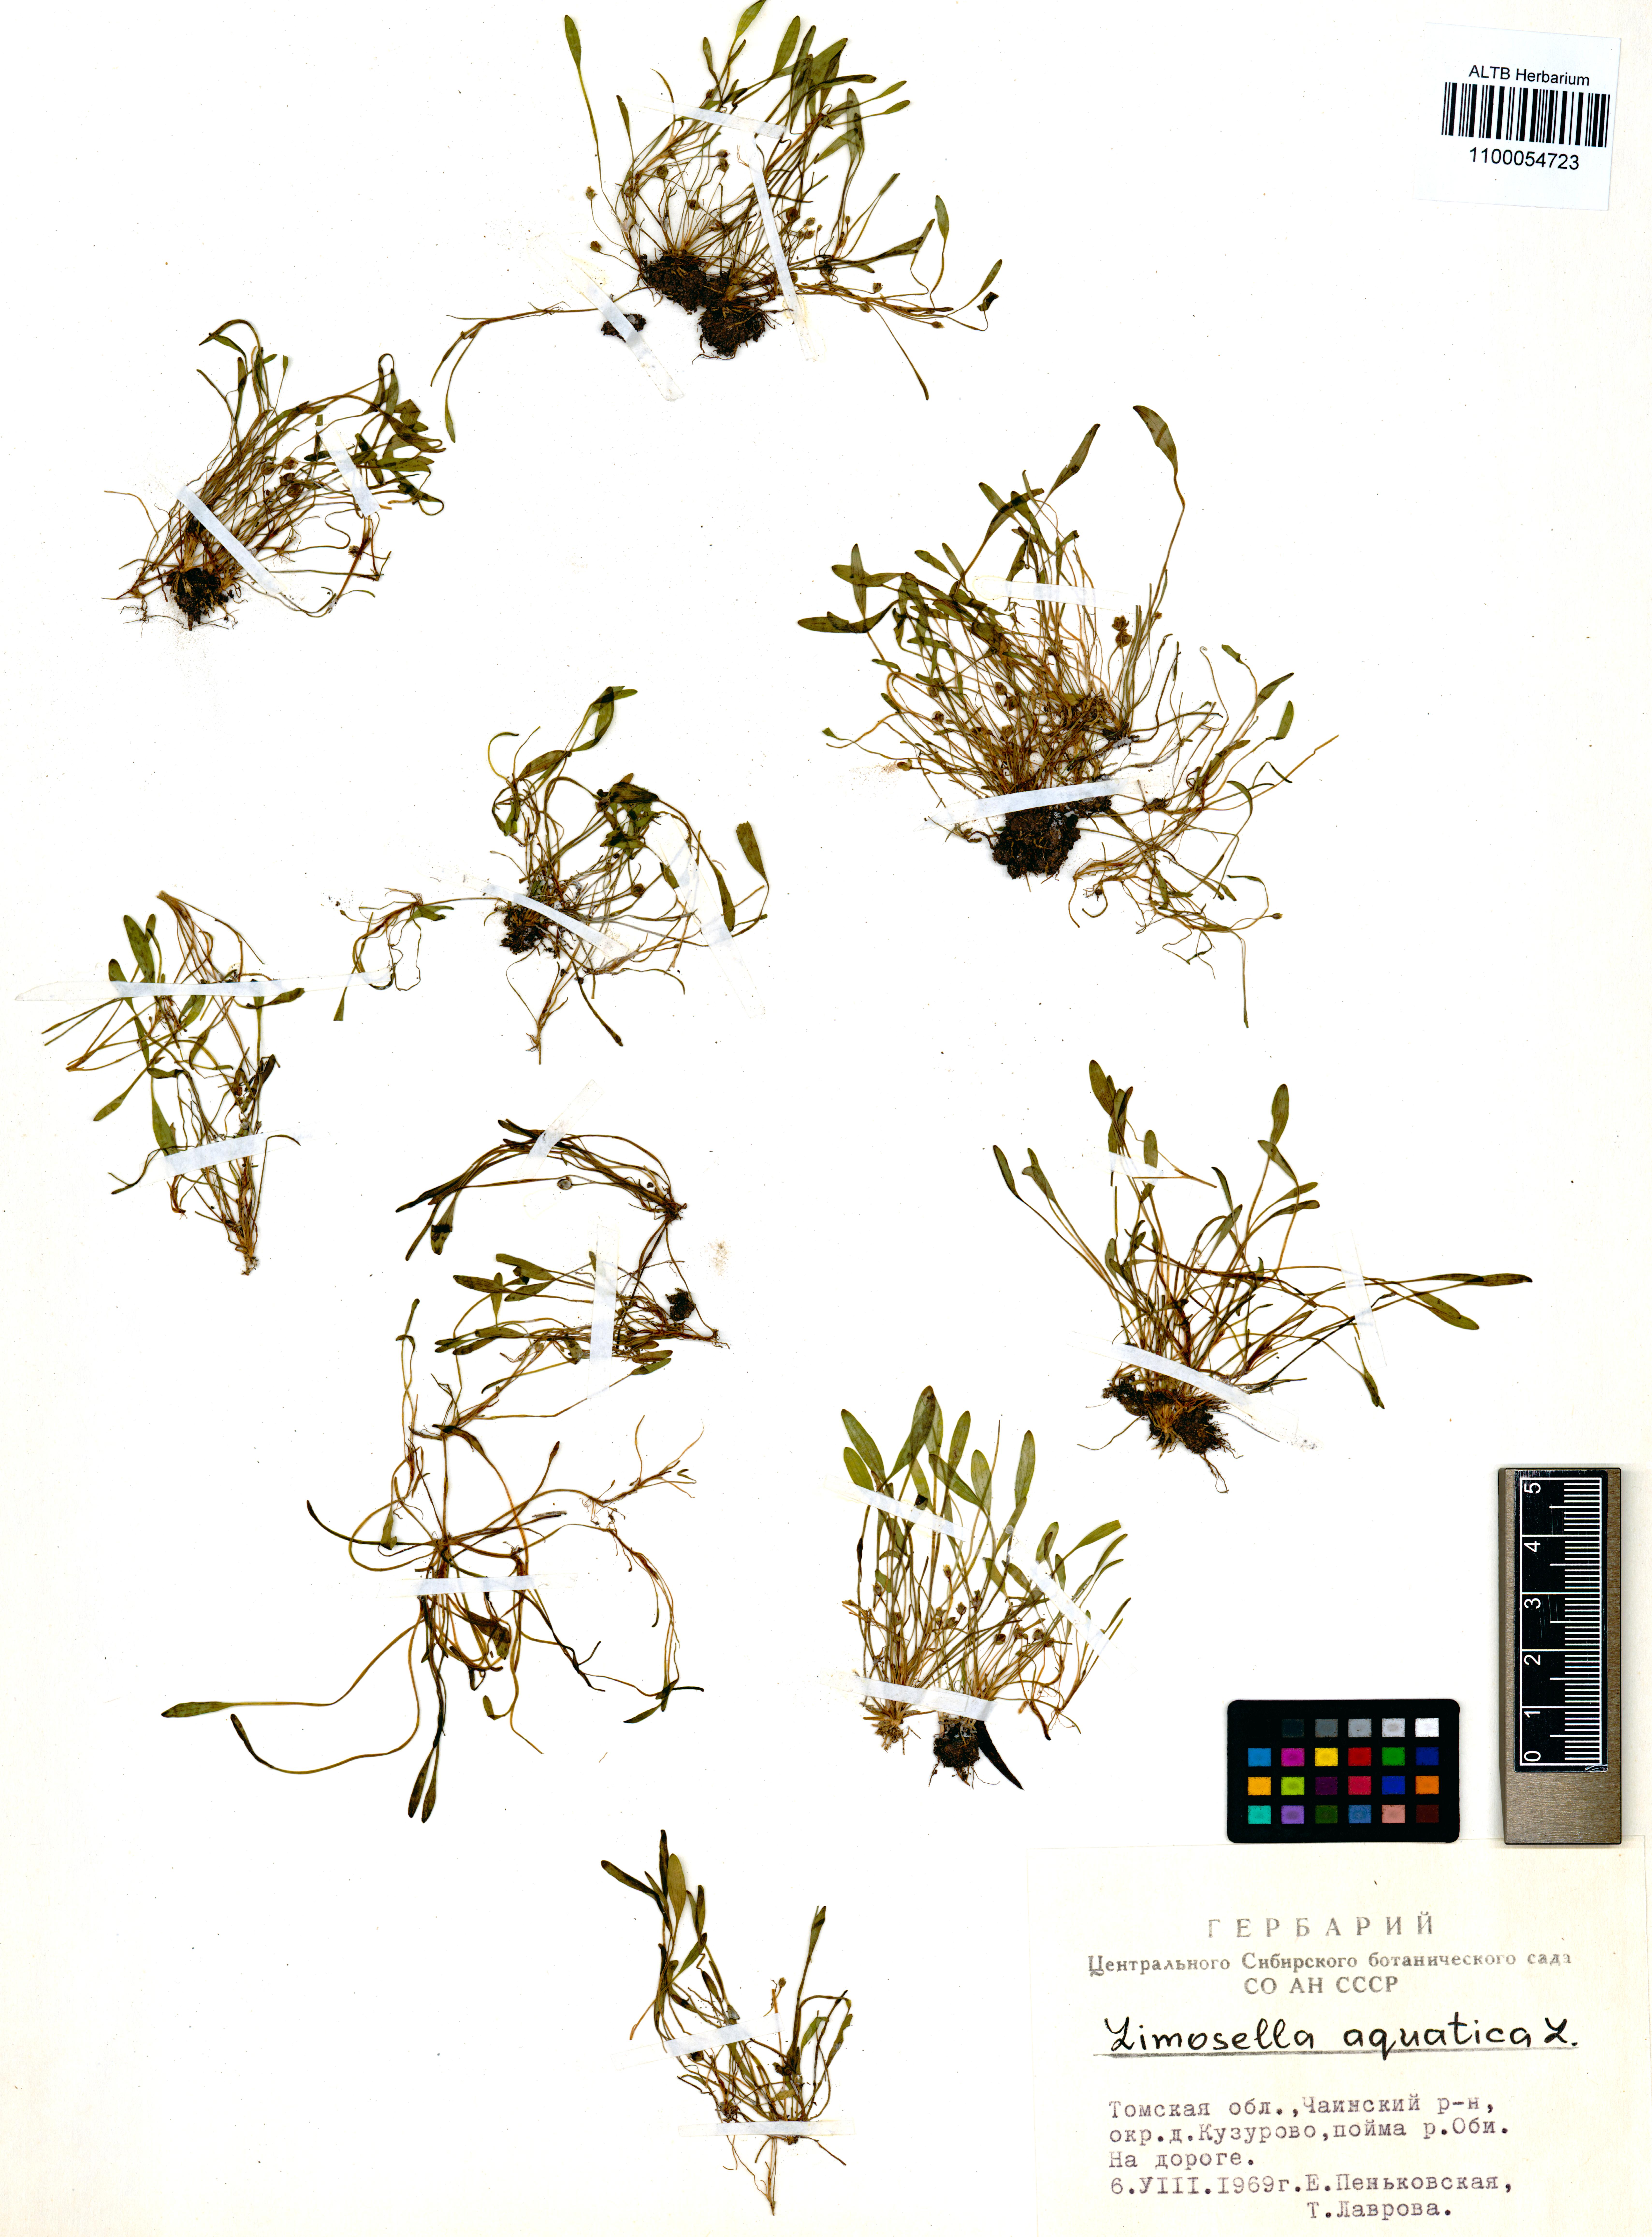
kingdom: Plantae
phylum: Tracheophyta
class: Magnoliopsida
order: Lamiales
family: Scrophulariaceae
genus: Limosella
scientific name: Limosella aquatica
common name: Mudwort
